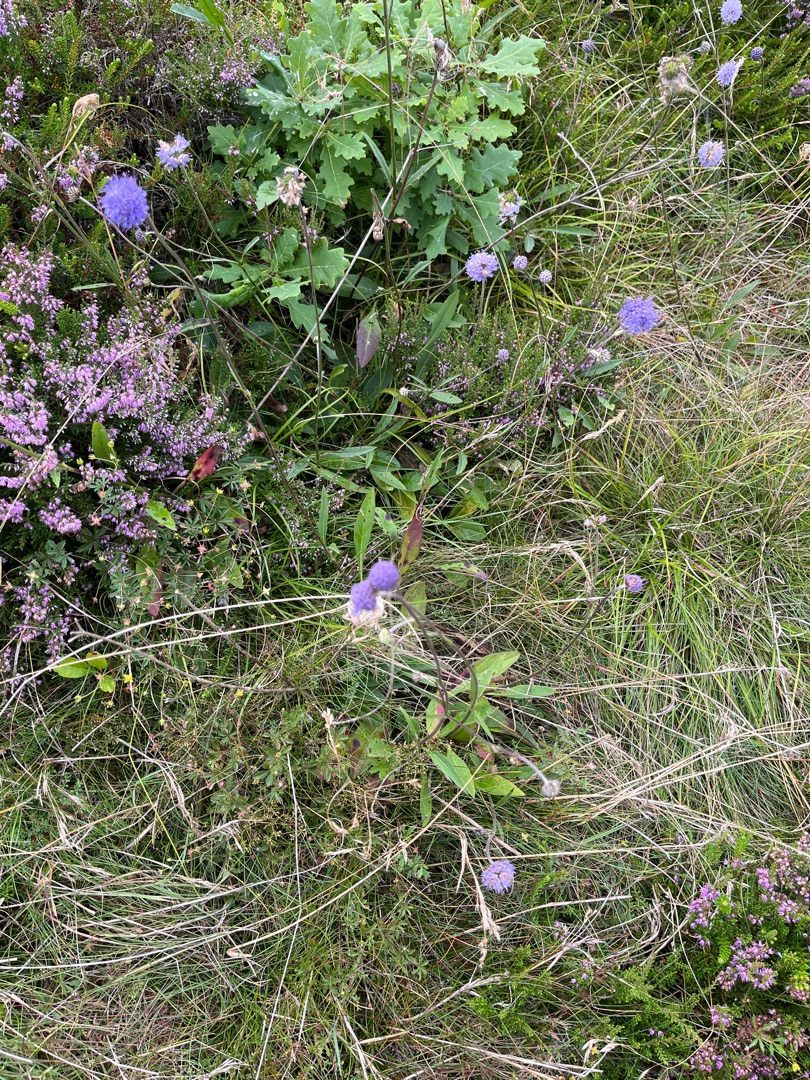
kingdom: Plantae
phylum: Tracheophyta
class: Magnoliopsida
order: Dipsacales
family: Caprifoliaceae
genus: Succisa
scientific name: Succisa pratensis
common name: Djævelsbid
